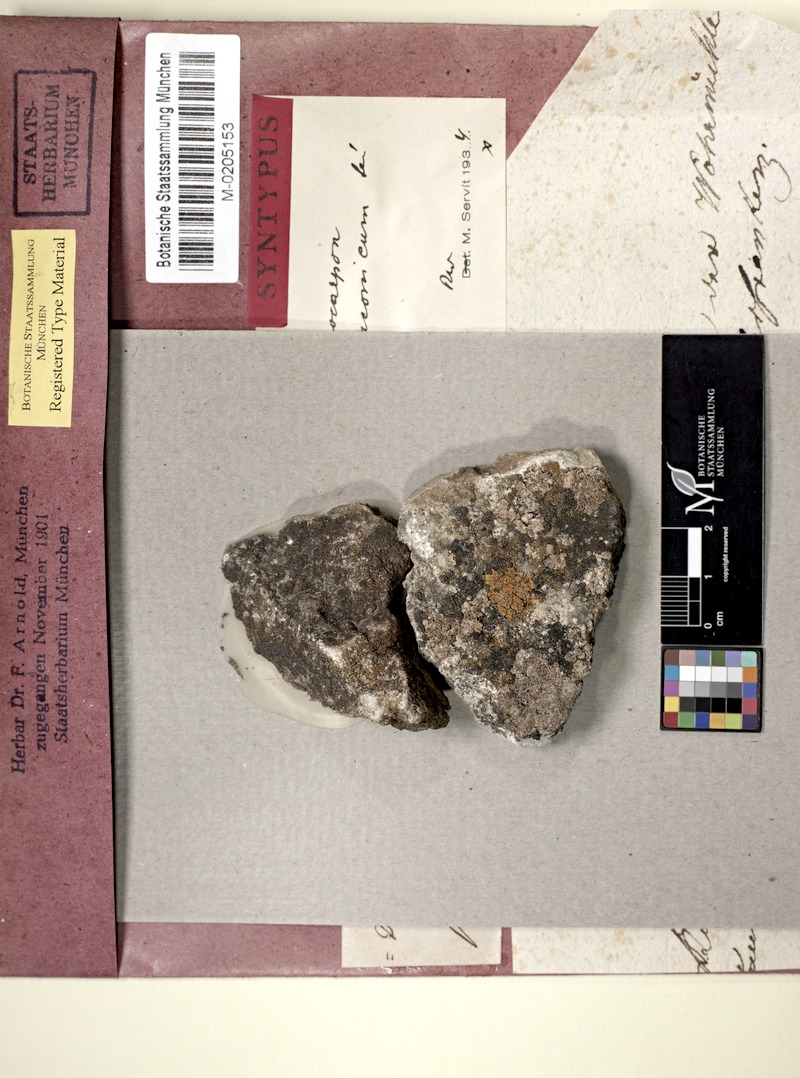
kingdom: Fungi
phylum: Ascomycota
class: Eurotiomycetes
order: Verrucariales
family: Verrucariaceae
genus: Dermatocarpon
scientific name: Dermatocarpon
